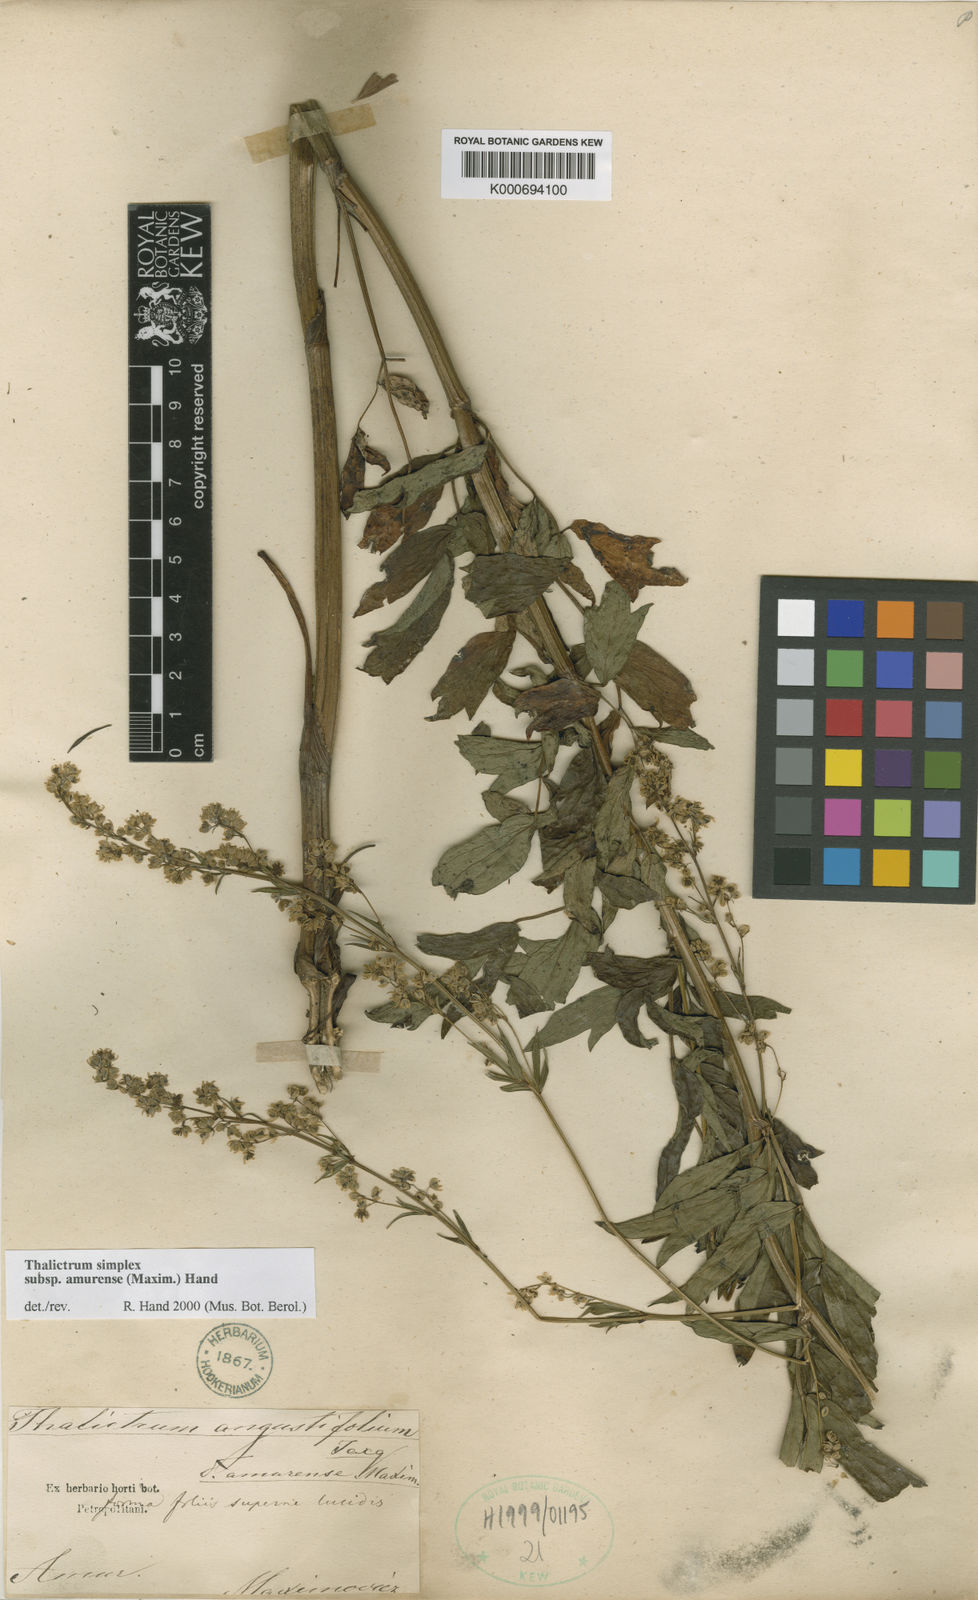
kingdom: Plantae
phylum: Tracheophyta
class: Magnoliopsida
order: Ranunculales
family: Ranunculaceae
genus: Thalictrum
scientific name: Thalictrum minus
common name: Lesser meadow-rue
